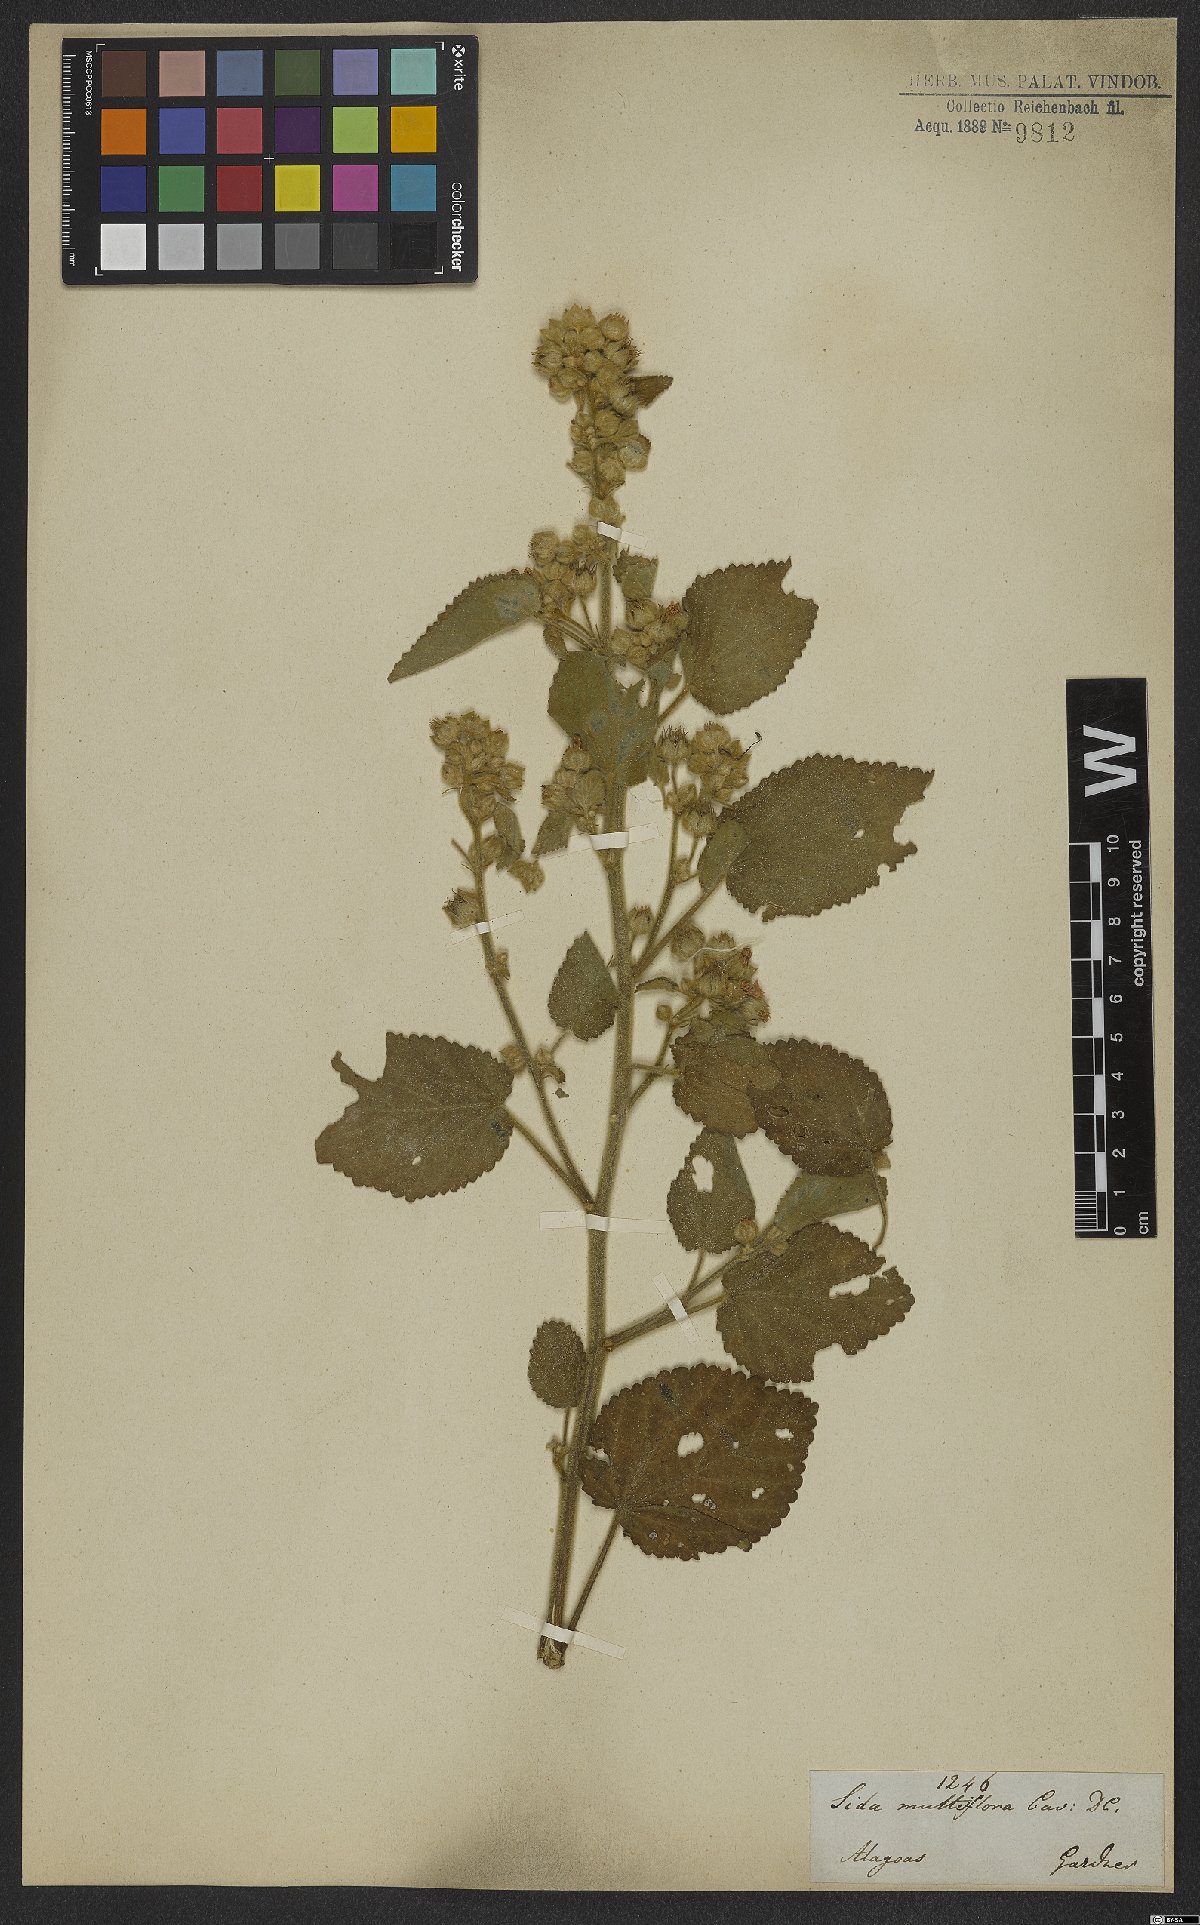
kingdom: Plantae
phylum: Tracheophyta
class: Magnoliopsida
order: Malvales
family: Malvaceae
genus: Sida
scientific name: Sida cordifolia
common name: Ilima
